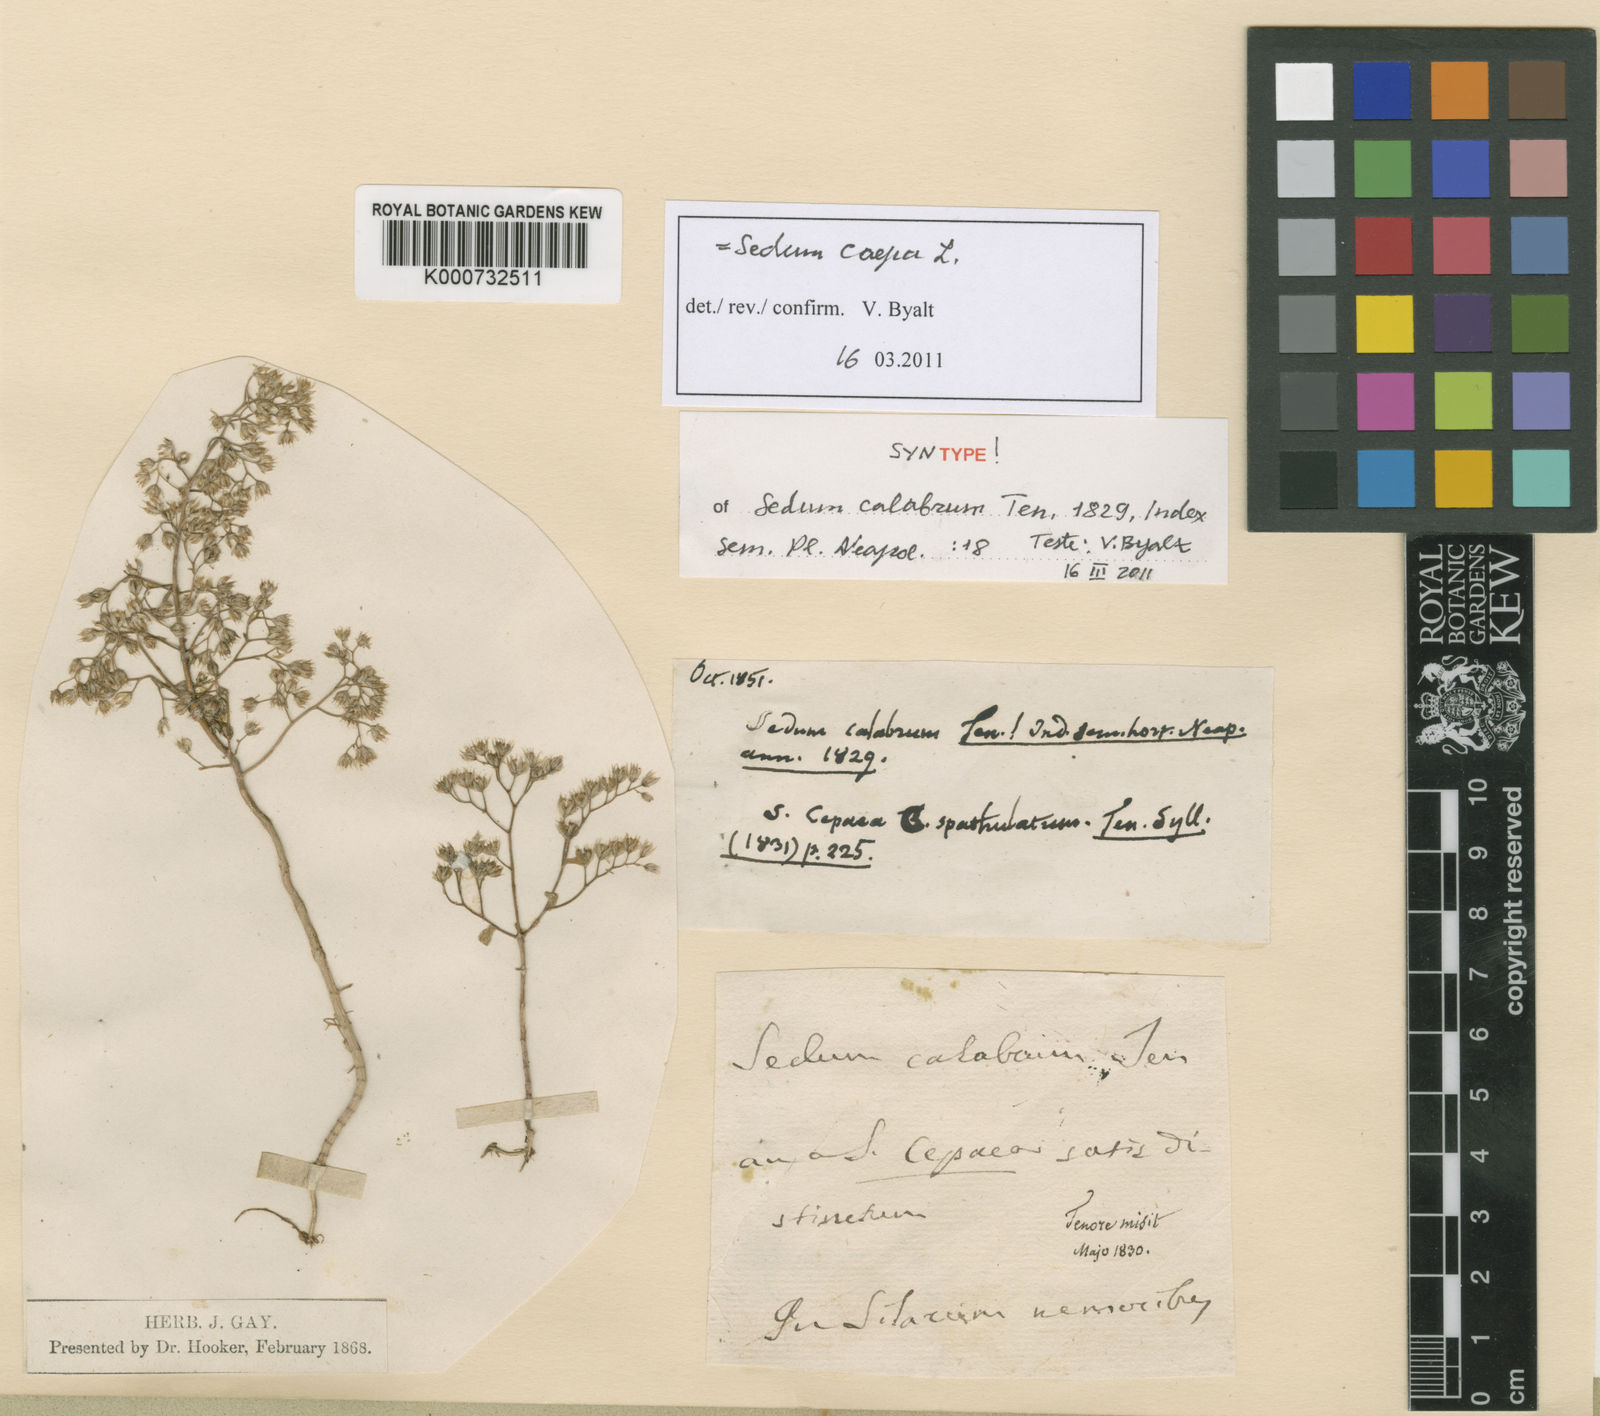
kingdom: Plantae
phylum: Tracheophyta
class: Magnoliopsida
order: Saxifragales
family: Crassulaceae
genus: Sedum
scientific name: Sedum cepaea
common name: Pink stonecrop
